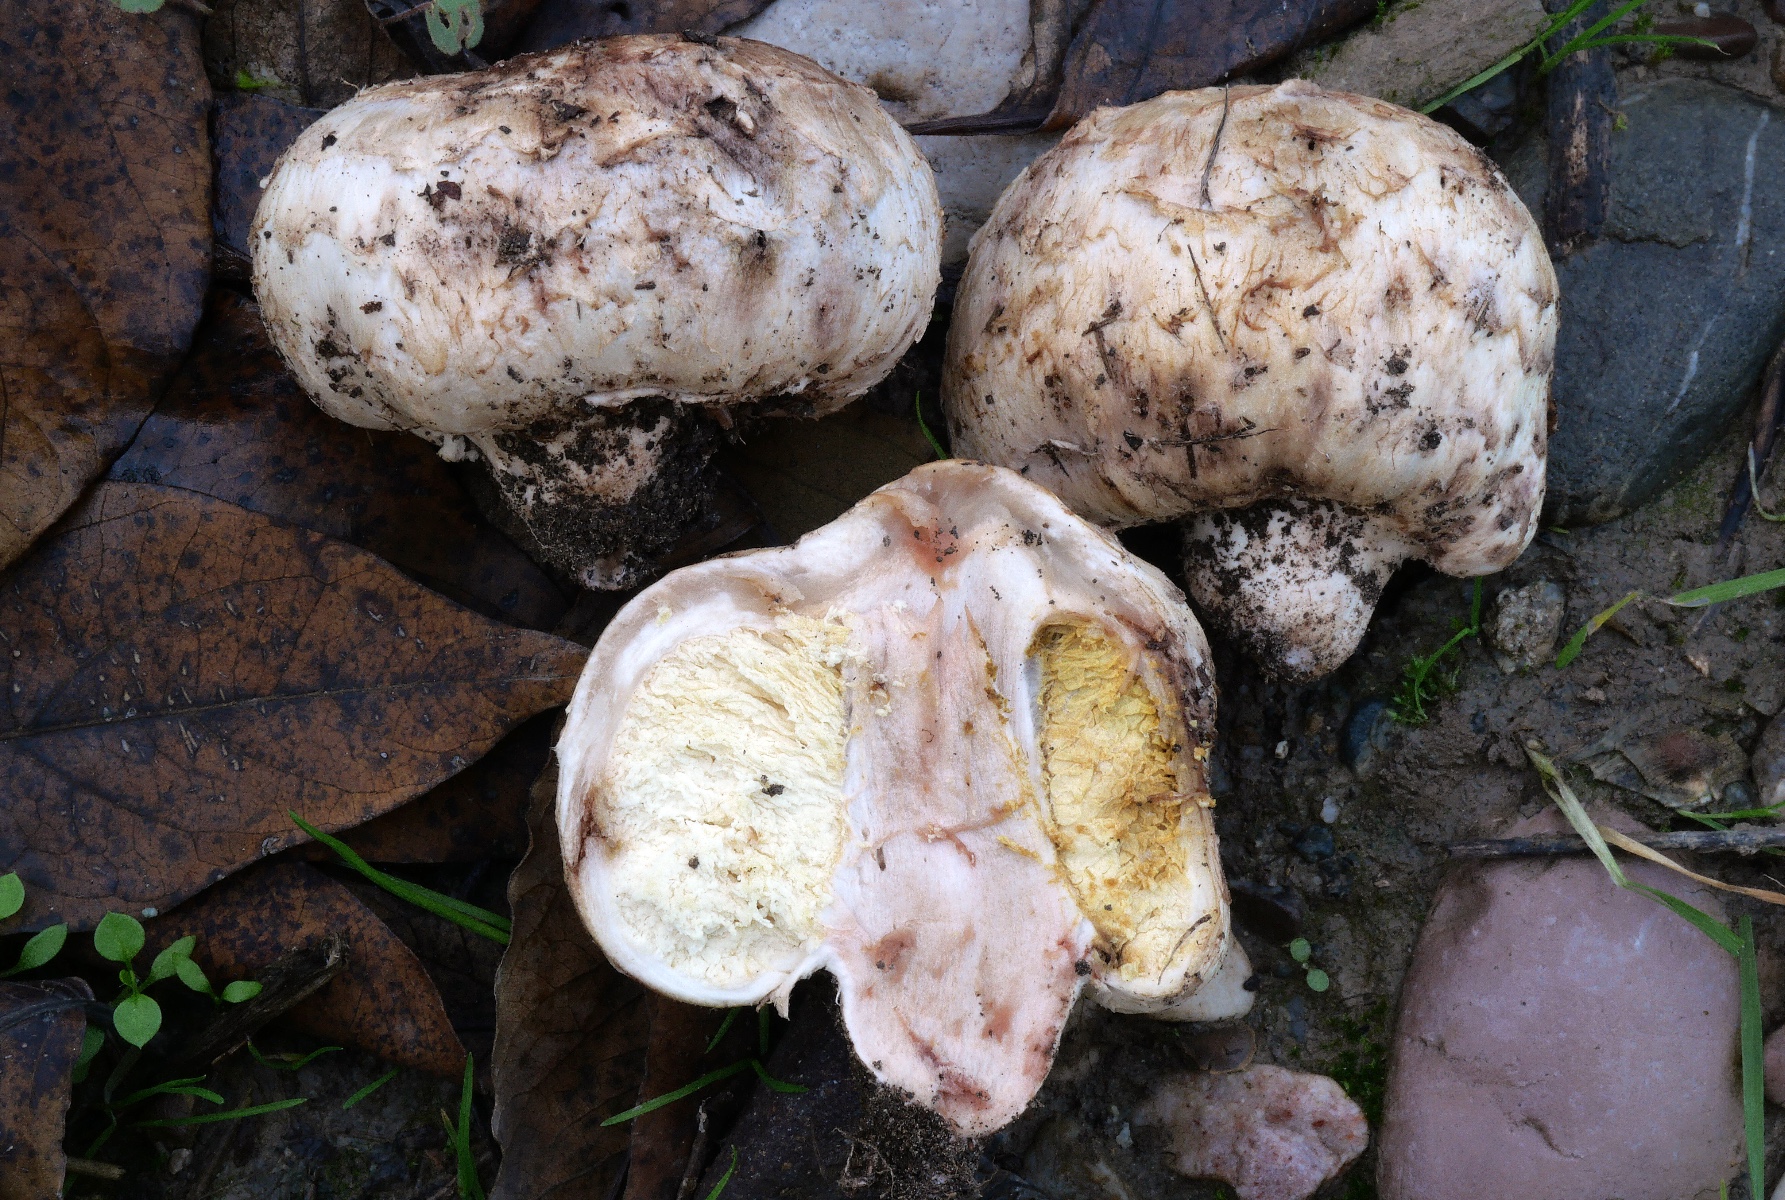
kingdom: Fungi
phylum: Basidiomycota
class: Agaricomycetes
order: Agaricales
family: Agaricaceae
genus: Chlorophyllum
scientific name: Chlorophyllum agaricoides
